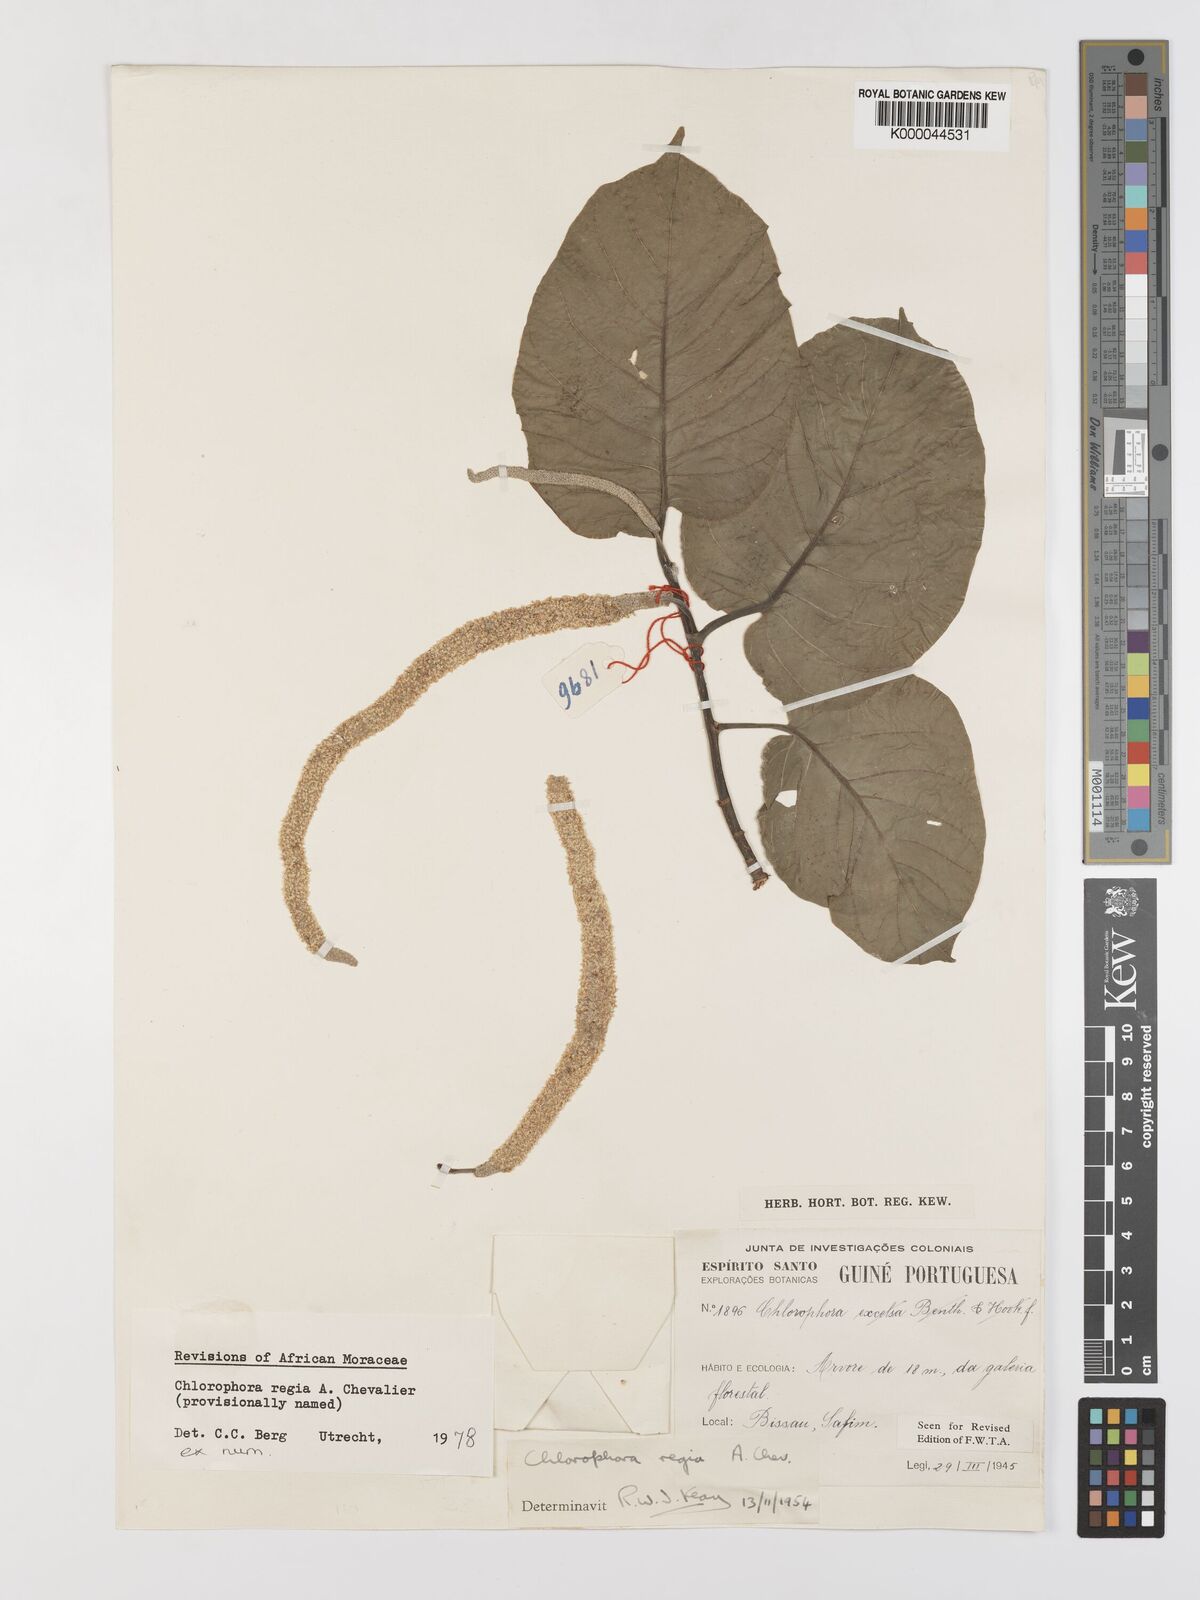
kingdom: Plantae
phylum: Tracheophyta
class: Magnoliopsida
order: Rosales
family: Moraceae
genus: Milicia
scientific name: Milicia regia
